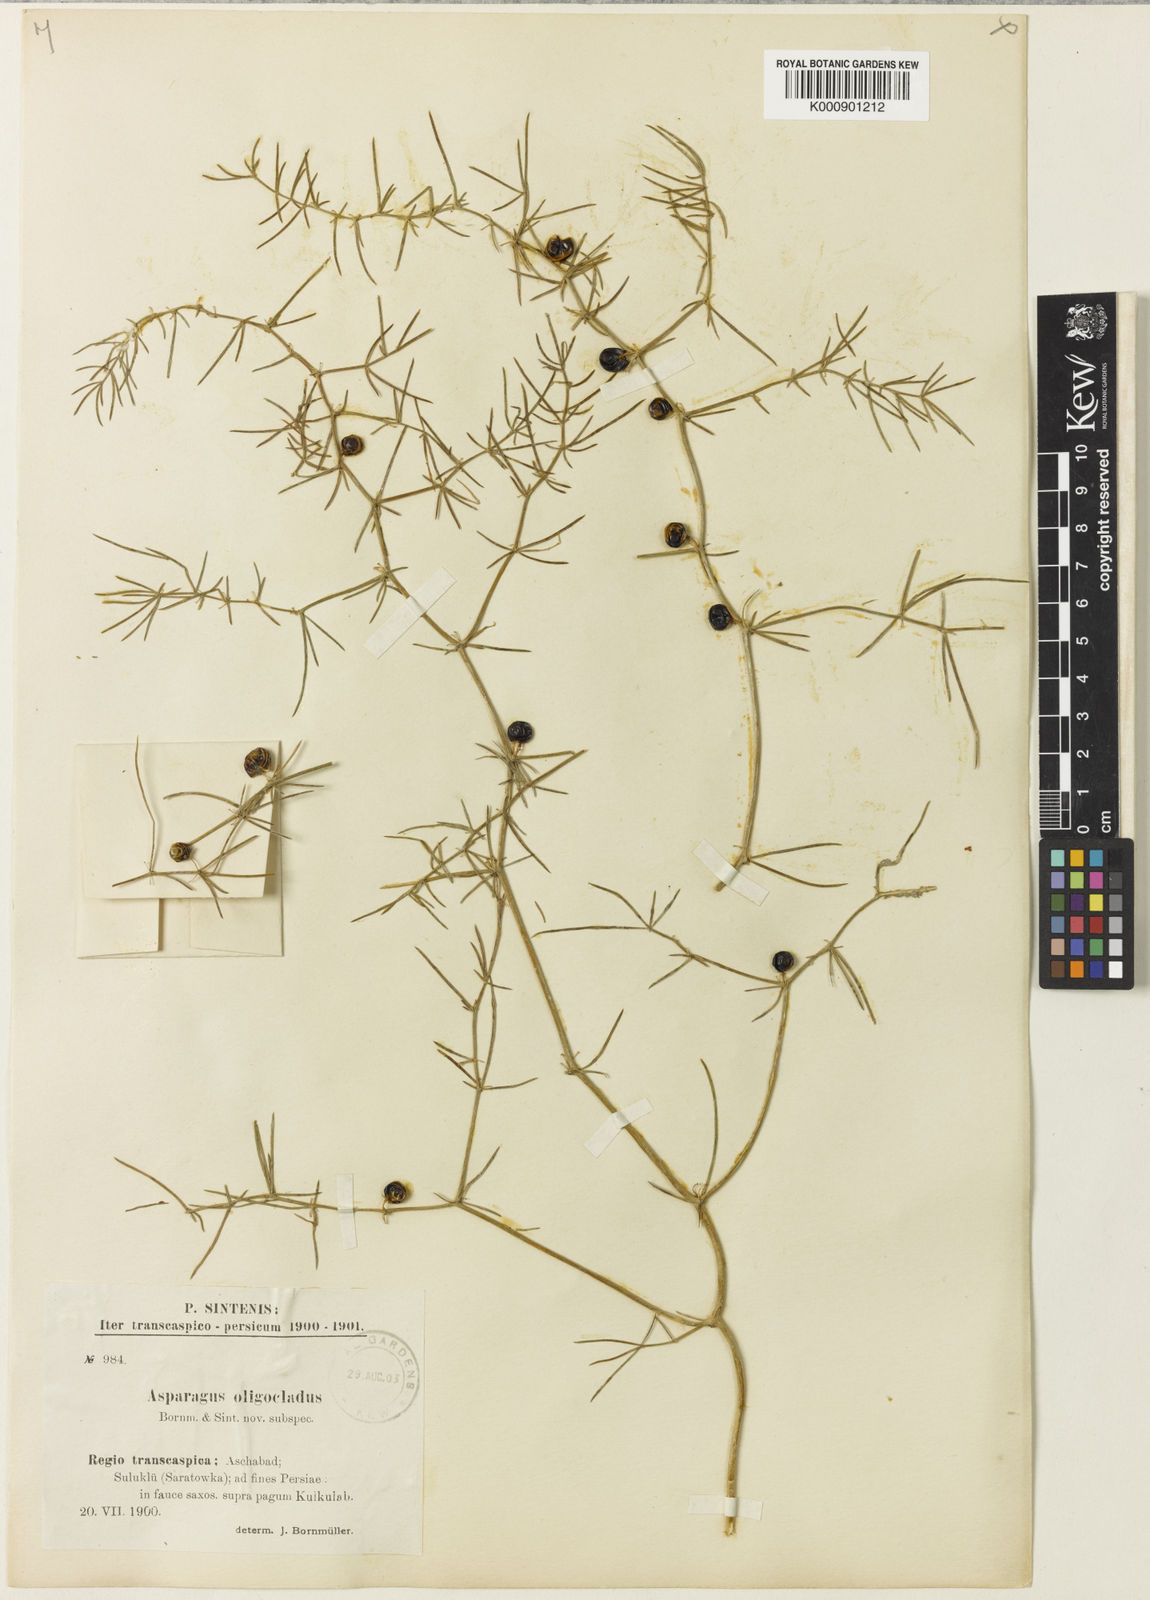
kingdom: Plantae
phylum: Tracheophyta
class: Liliopsida
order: Asparagales
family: Asparagaceae
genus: Asparagus
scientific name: Asparagus
